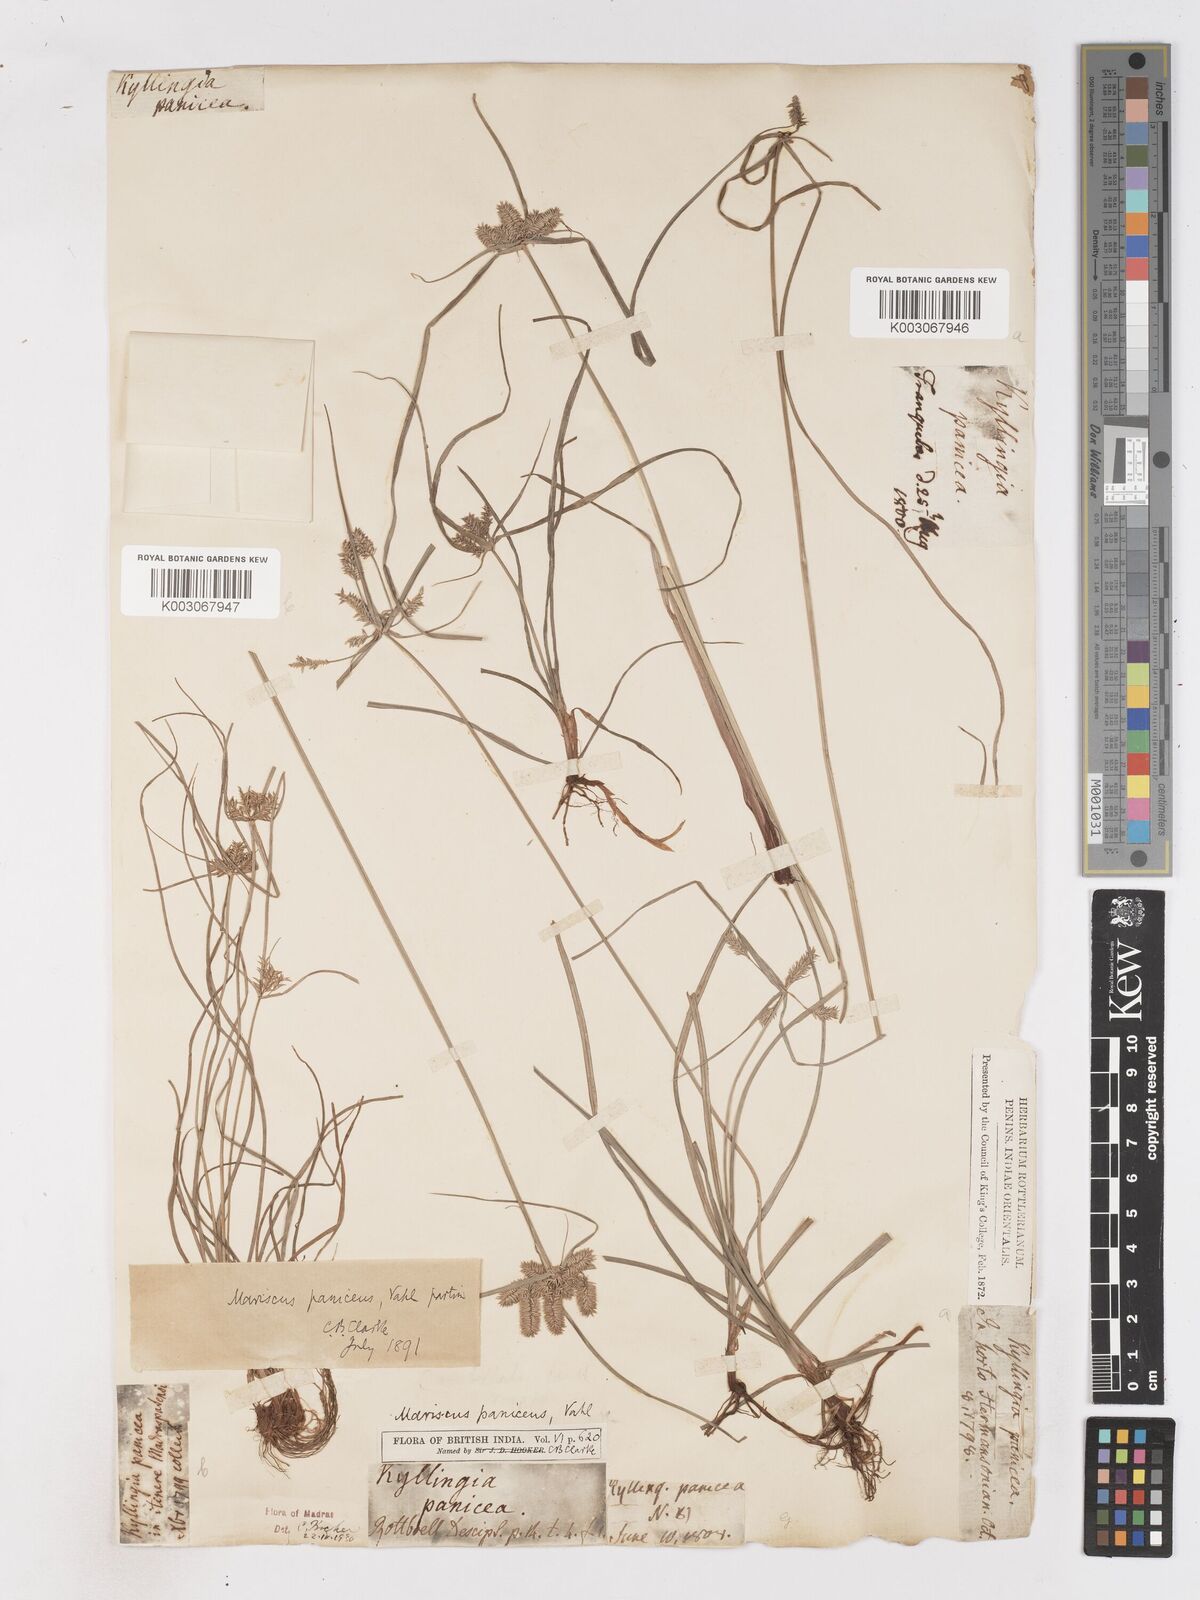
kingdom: Plantae
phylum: Tracheophyta
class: Liliopsida
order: Poales
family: Cyperaceae
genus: Cyperus
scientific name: Cyperus paniceus
